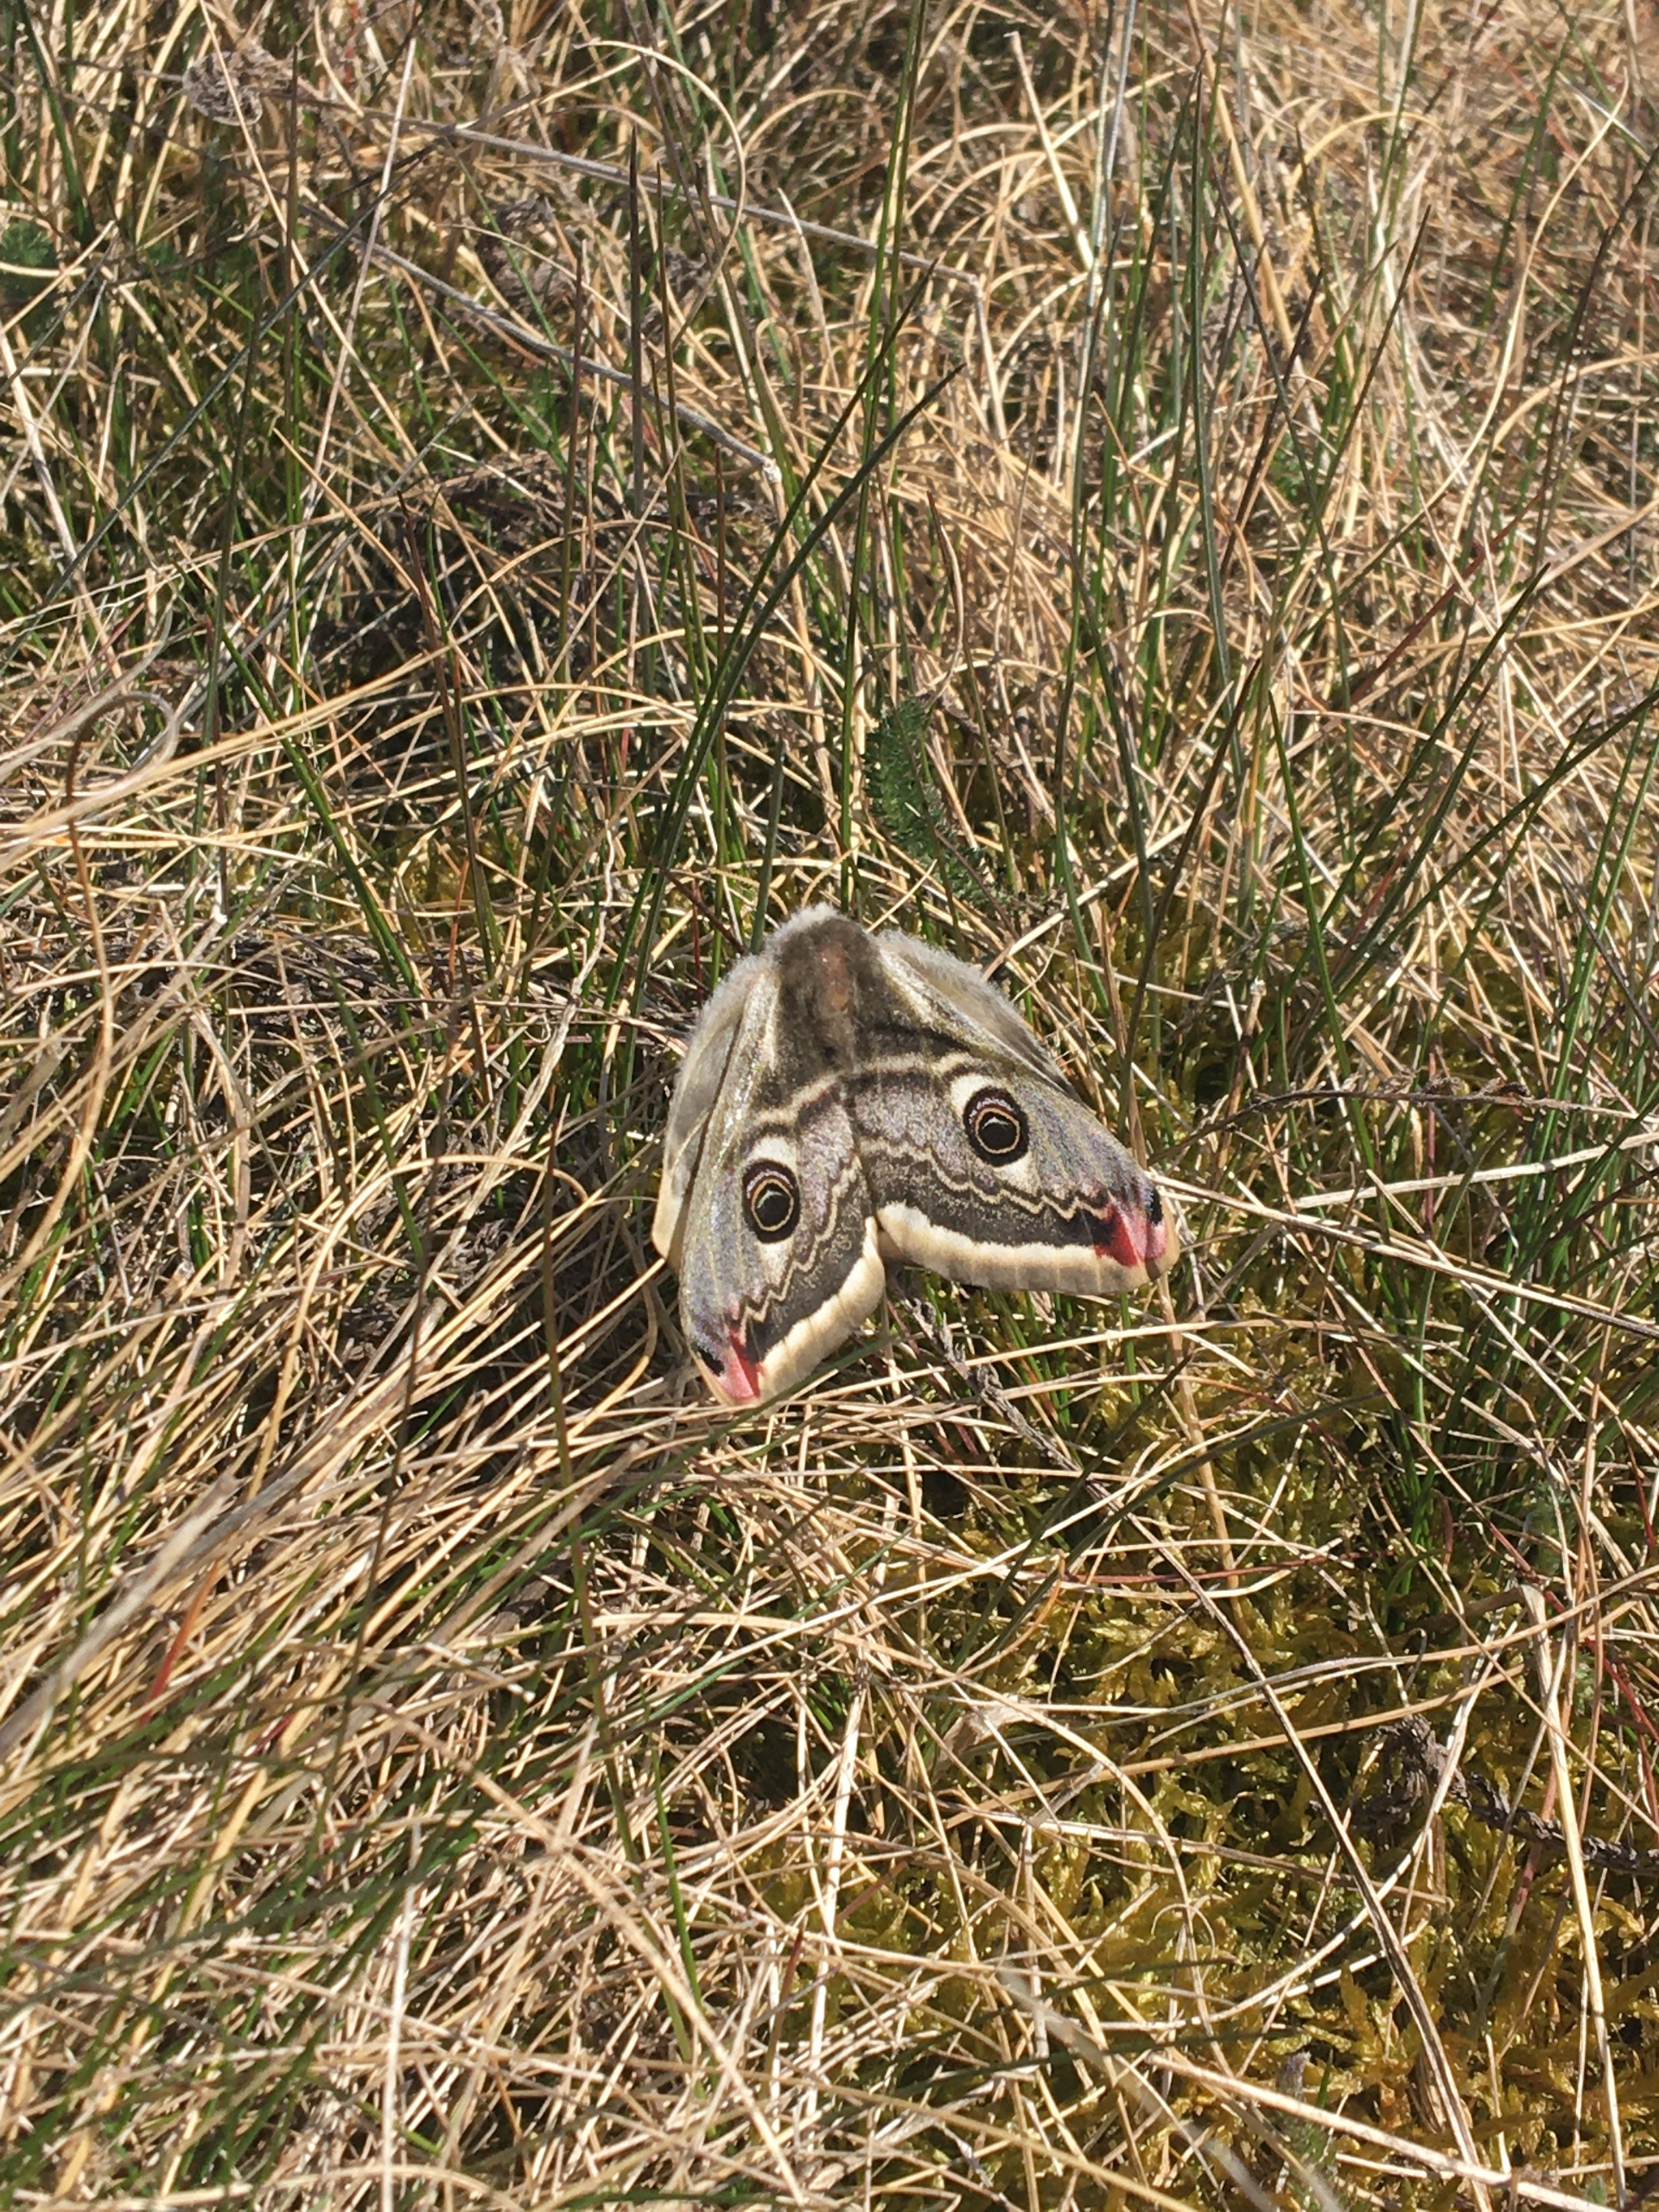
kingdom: Animalia
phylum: Arthropoda
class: Insecta
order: Lepidoptera
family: Saturniidae
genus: Saturnia
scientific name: Saturnia pavonia
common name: Lille natpåfugleøje
